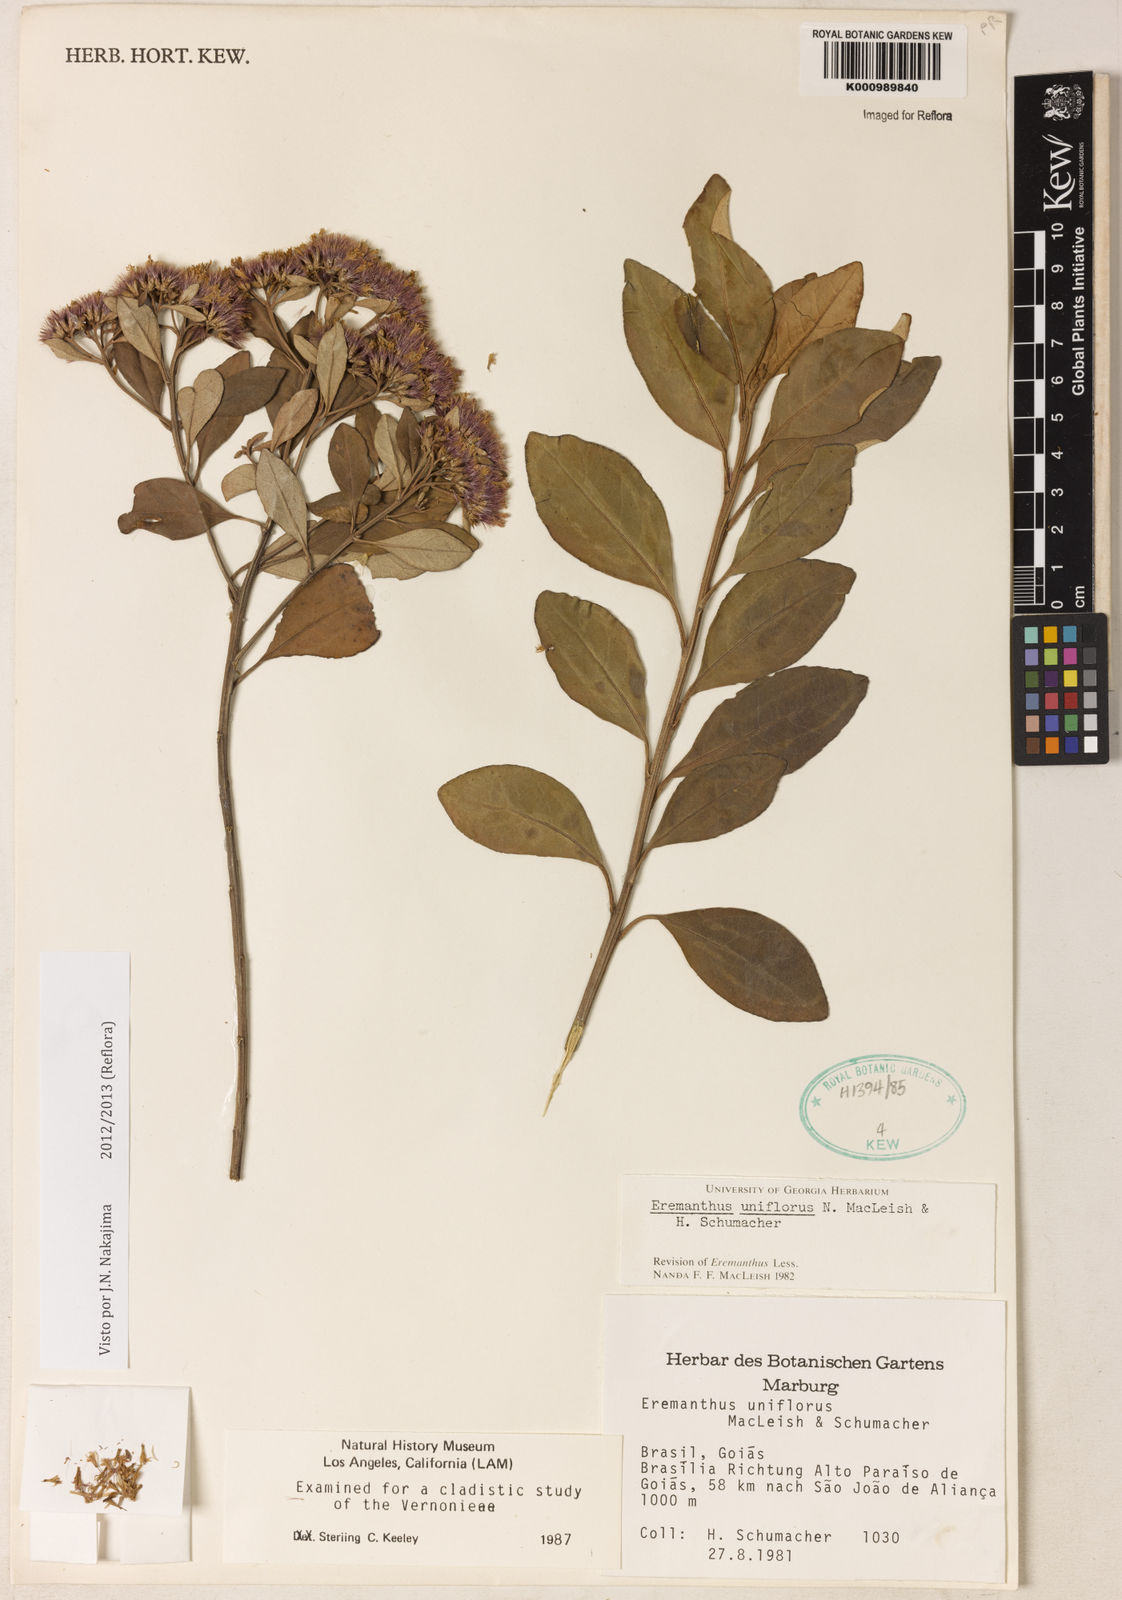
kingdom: Plantae
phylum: Tracheophyta
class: Magnoliopsida
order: Asterales
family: Asteraceae
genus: Eremanthus
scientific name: Eremanthus uniflorus
